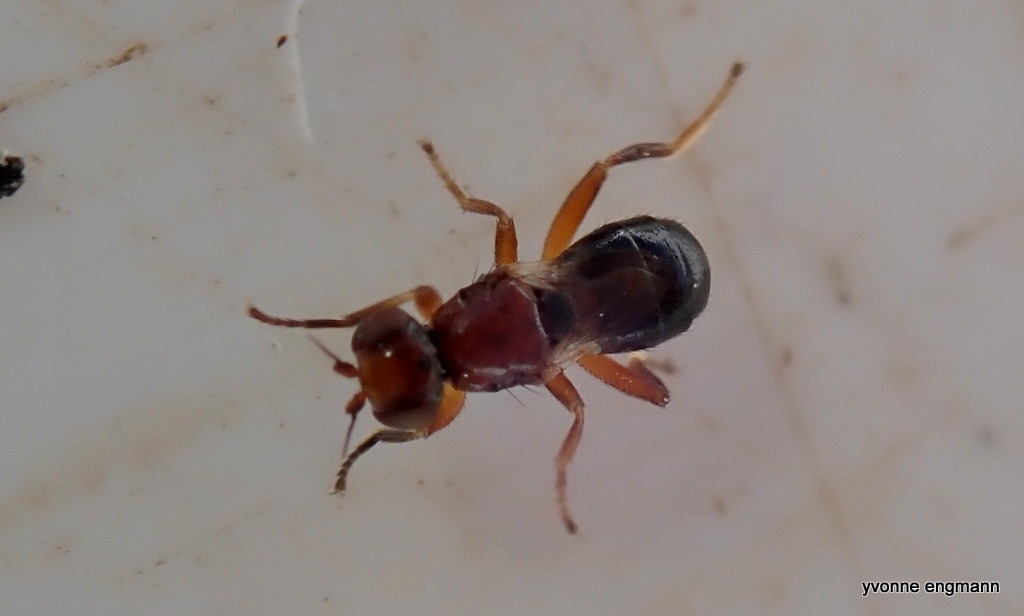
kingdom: Animalia
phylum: Arthropoda
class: Insecta
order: Diptera
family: Chloropidae
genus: Elachiptera
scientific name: Elachiptera brevipennis
